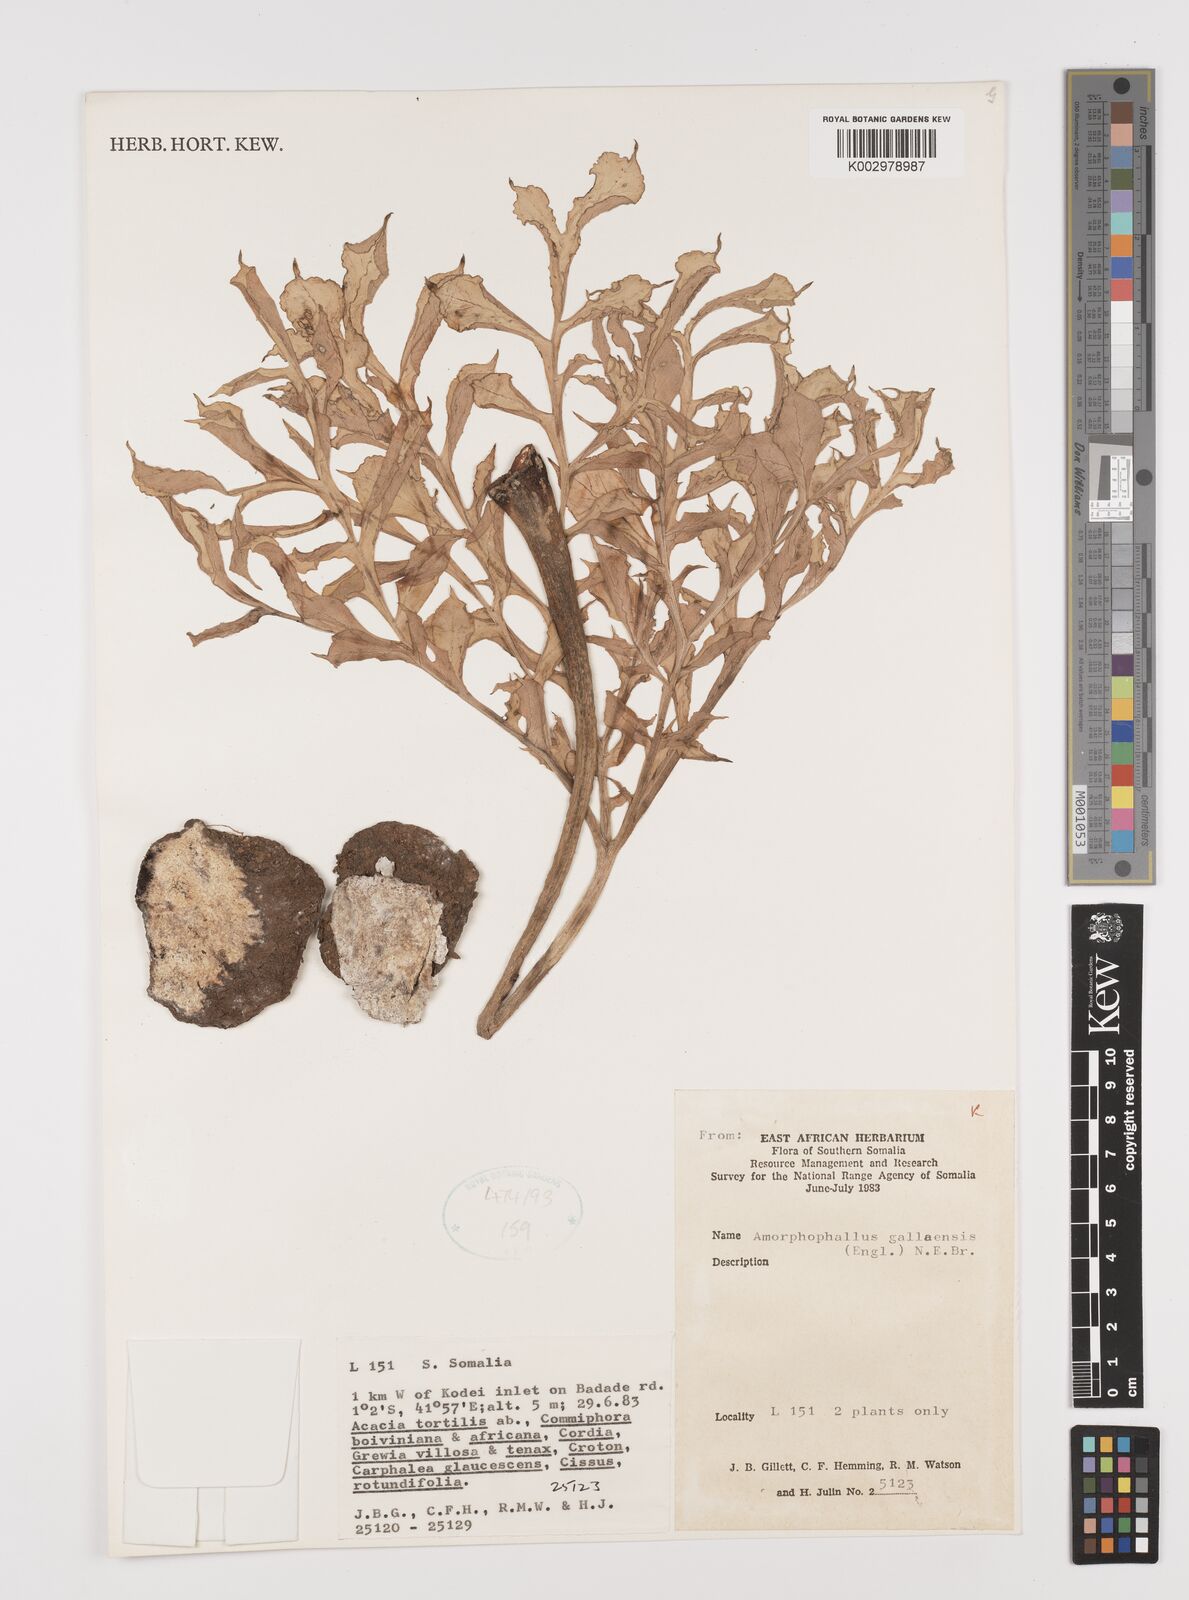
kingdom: Plantae
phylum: Tracheophyta
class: Liliopsida
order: Alismatales
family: Araceae
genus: Amorphophallus
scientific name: Amorphophallus gallaensis
